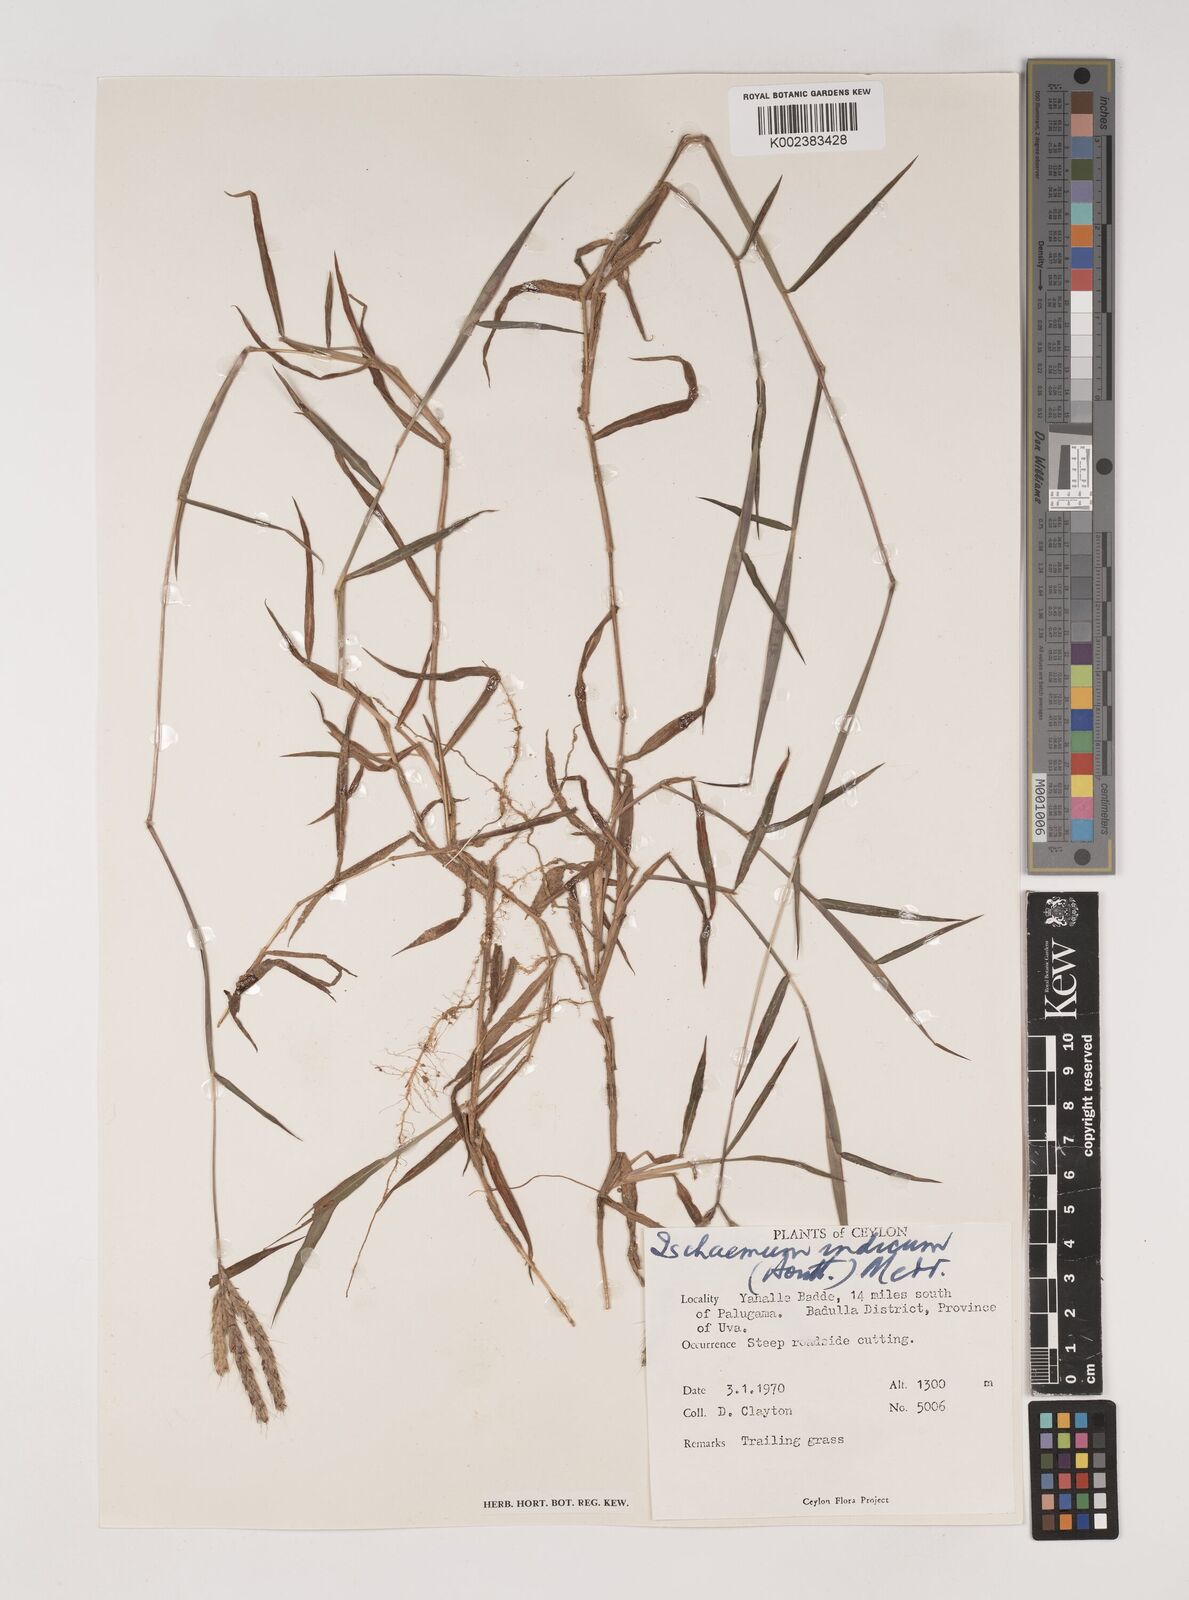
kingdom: Plantae
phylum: Tracheophyta
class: Liliopsida
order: Poales
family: Poaceae
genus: Polytrias
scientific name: Polytrias indica
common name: Indian murainagrass
